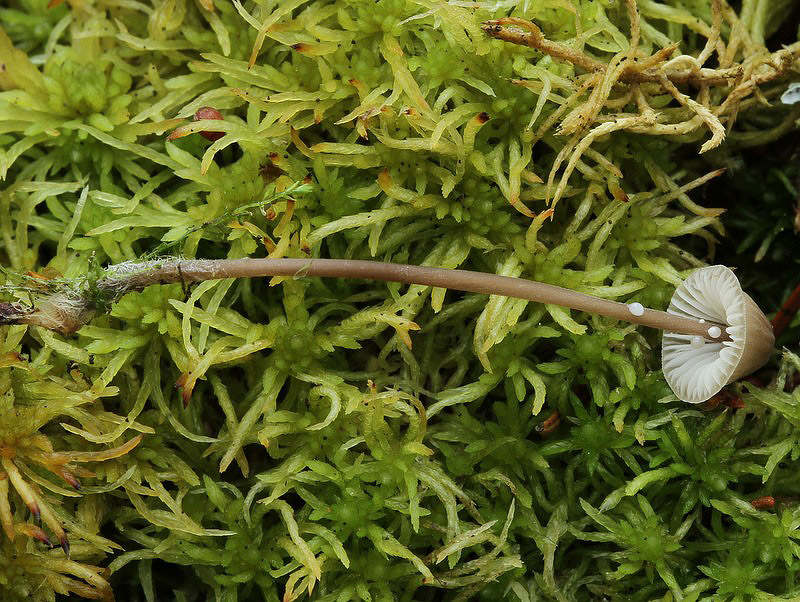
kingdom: Fungi
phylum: Basidiomycota
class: Agaricomycetes
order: Agaricales
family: Mycenaceae
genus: Mycena
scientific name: Mycena galopus
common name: hvidmælket huesvamp
